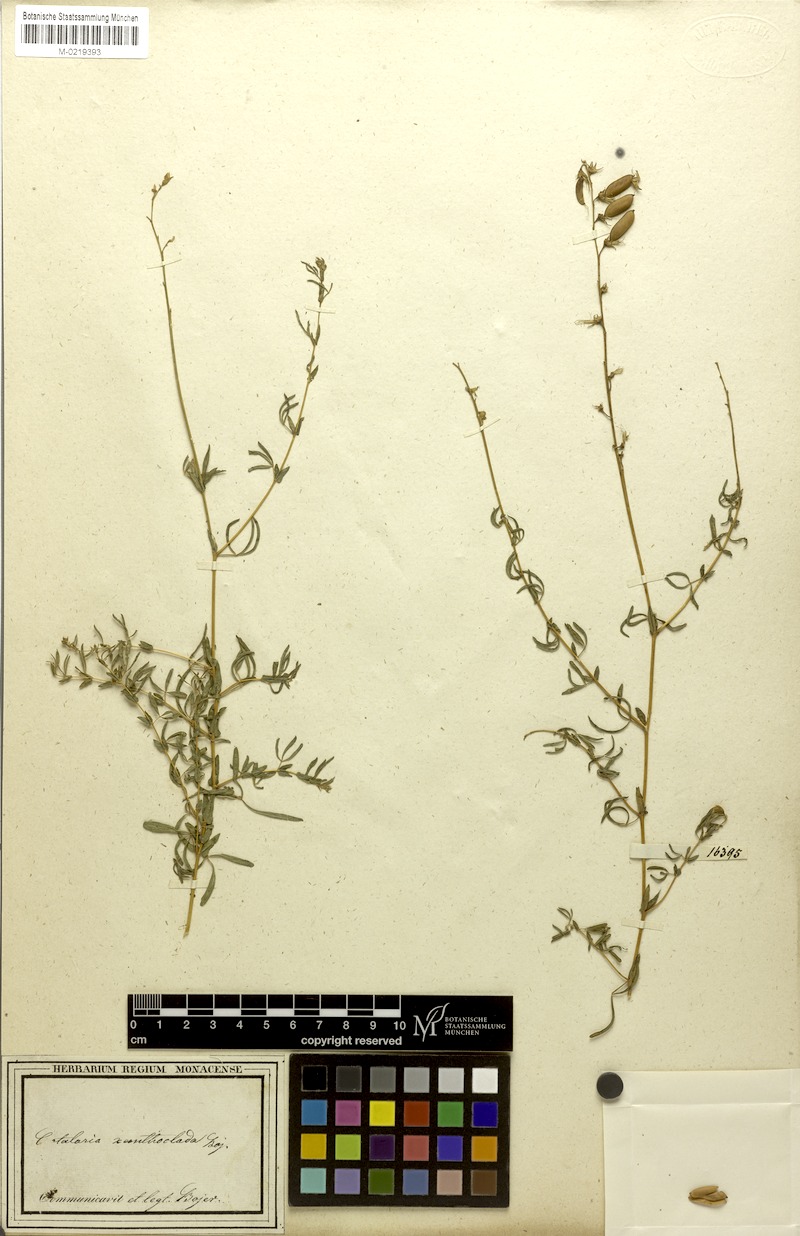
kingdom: Plantae
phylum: Tracheophyta
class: Magnoliopsida
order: Fabales
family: Fabaceae
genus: Crotalaria
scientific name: Crotalaria xanthoclada
